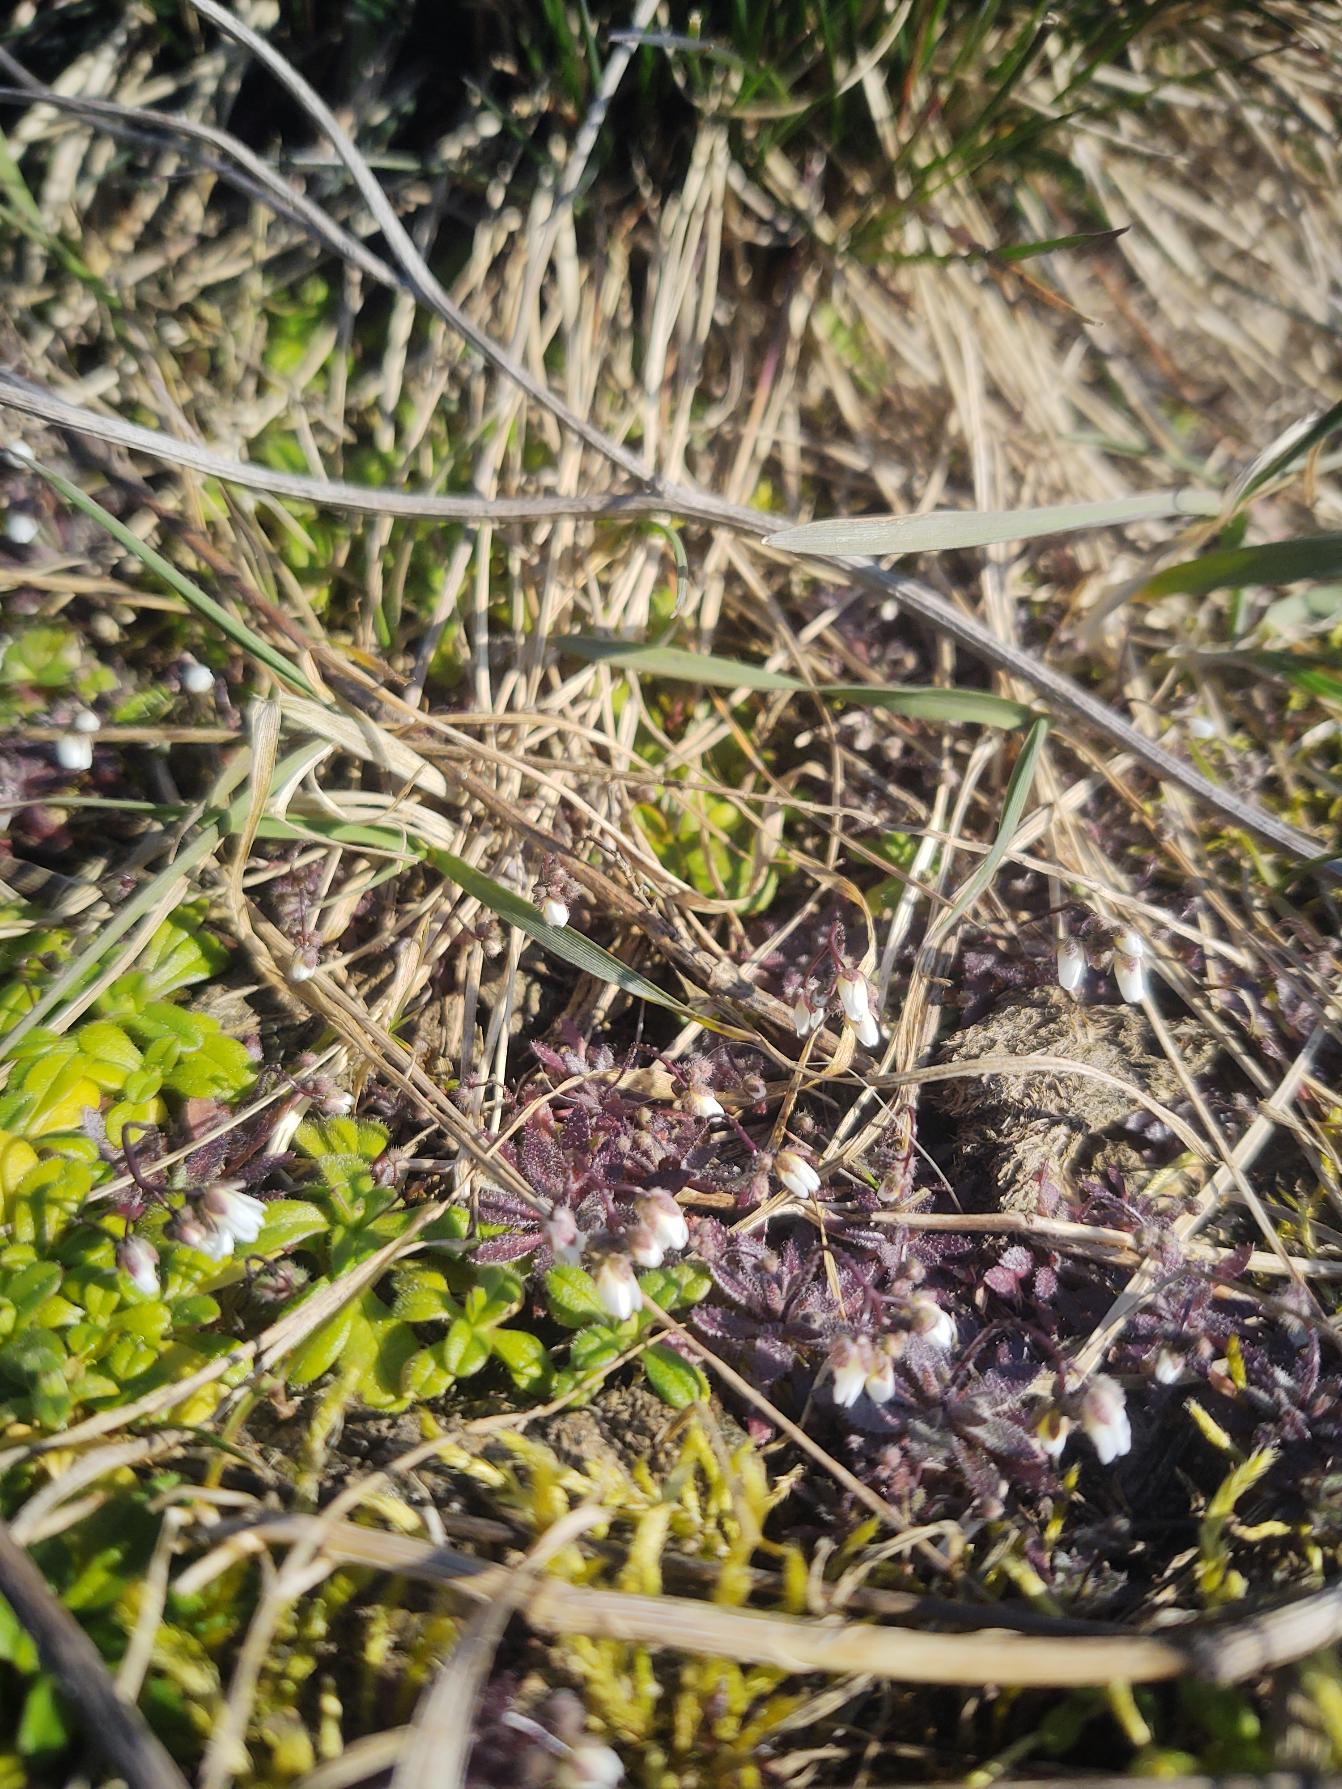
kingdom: Plantae
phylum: Tracheophyta
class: Magnoliopsida
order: Brassicales
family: Brassicaceae
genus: Draba
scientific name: Draba verna
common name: Vår-gæslingeblomst
